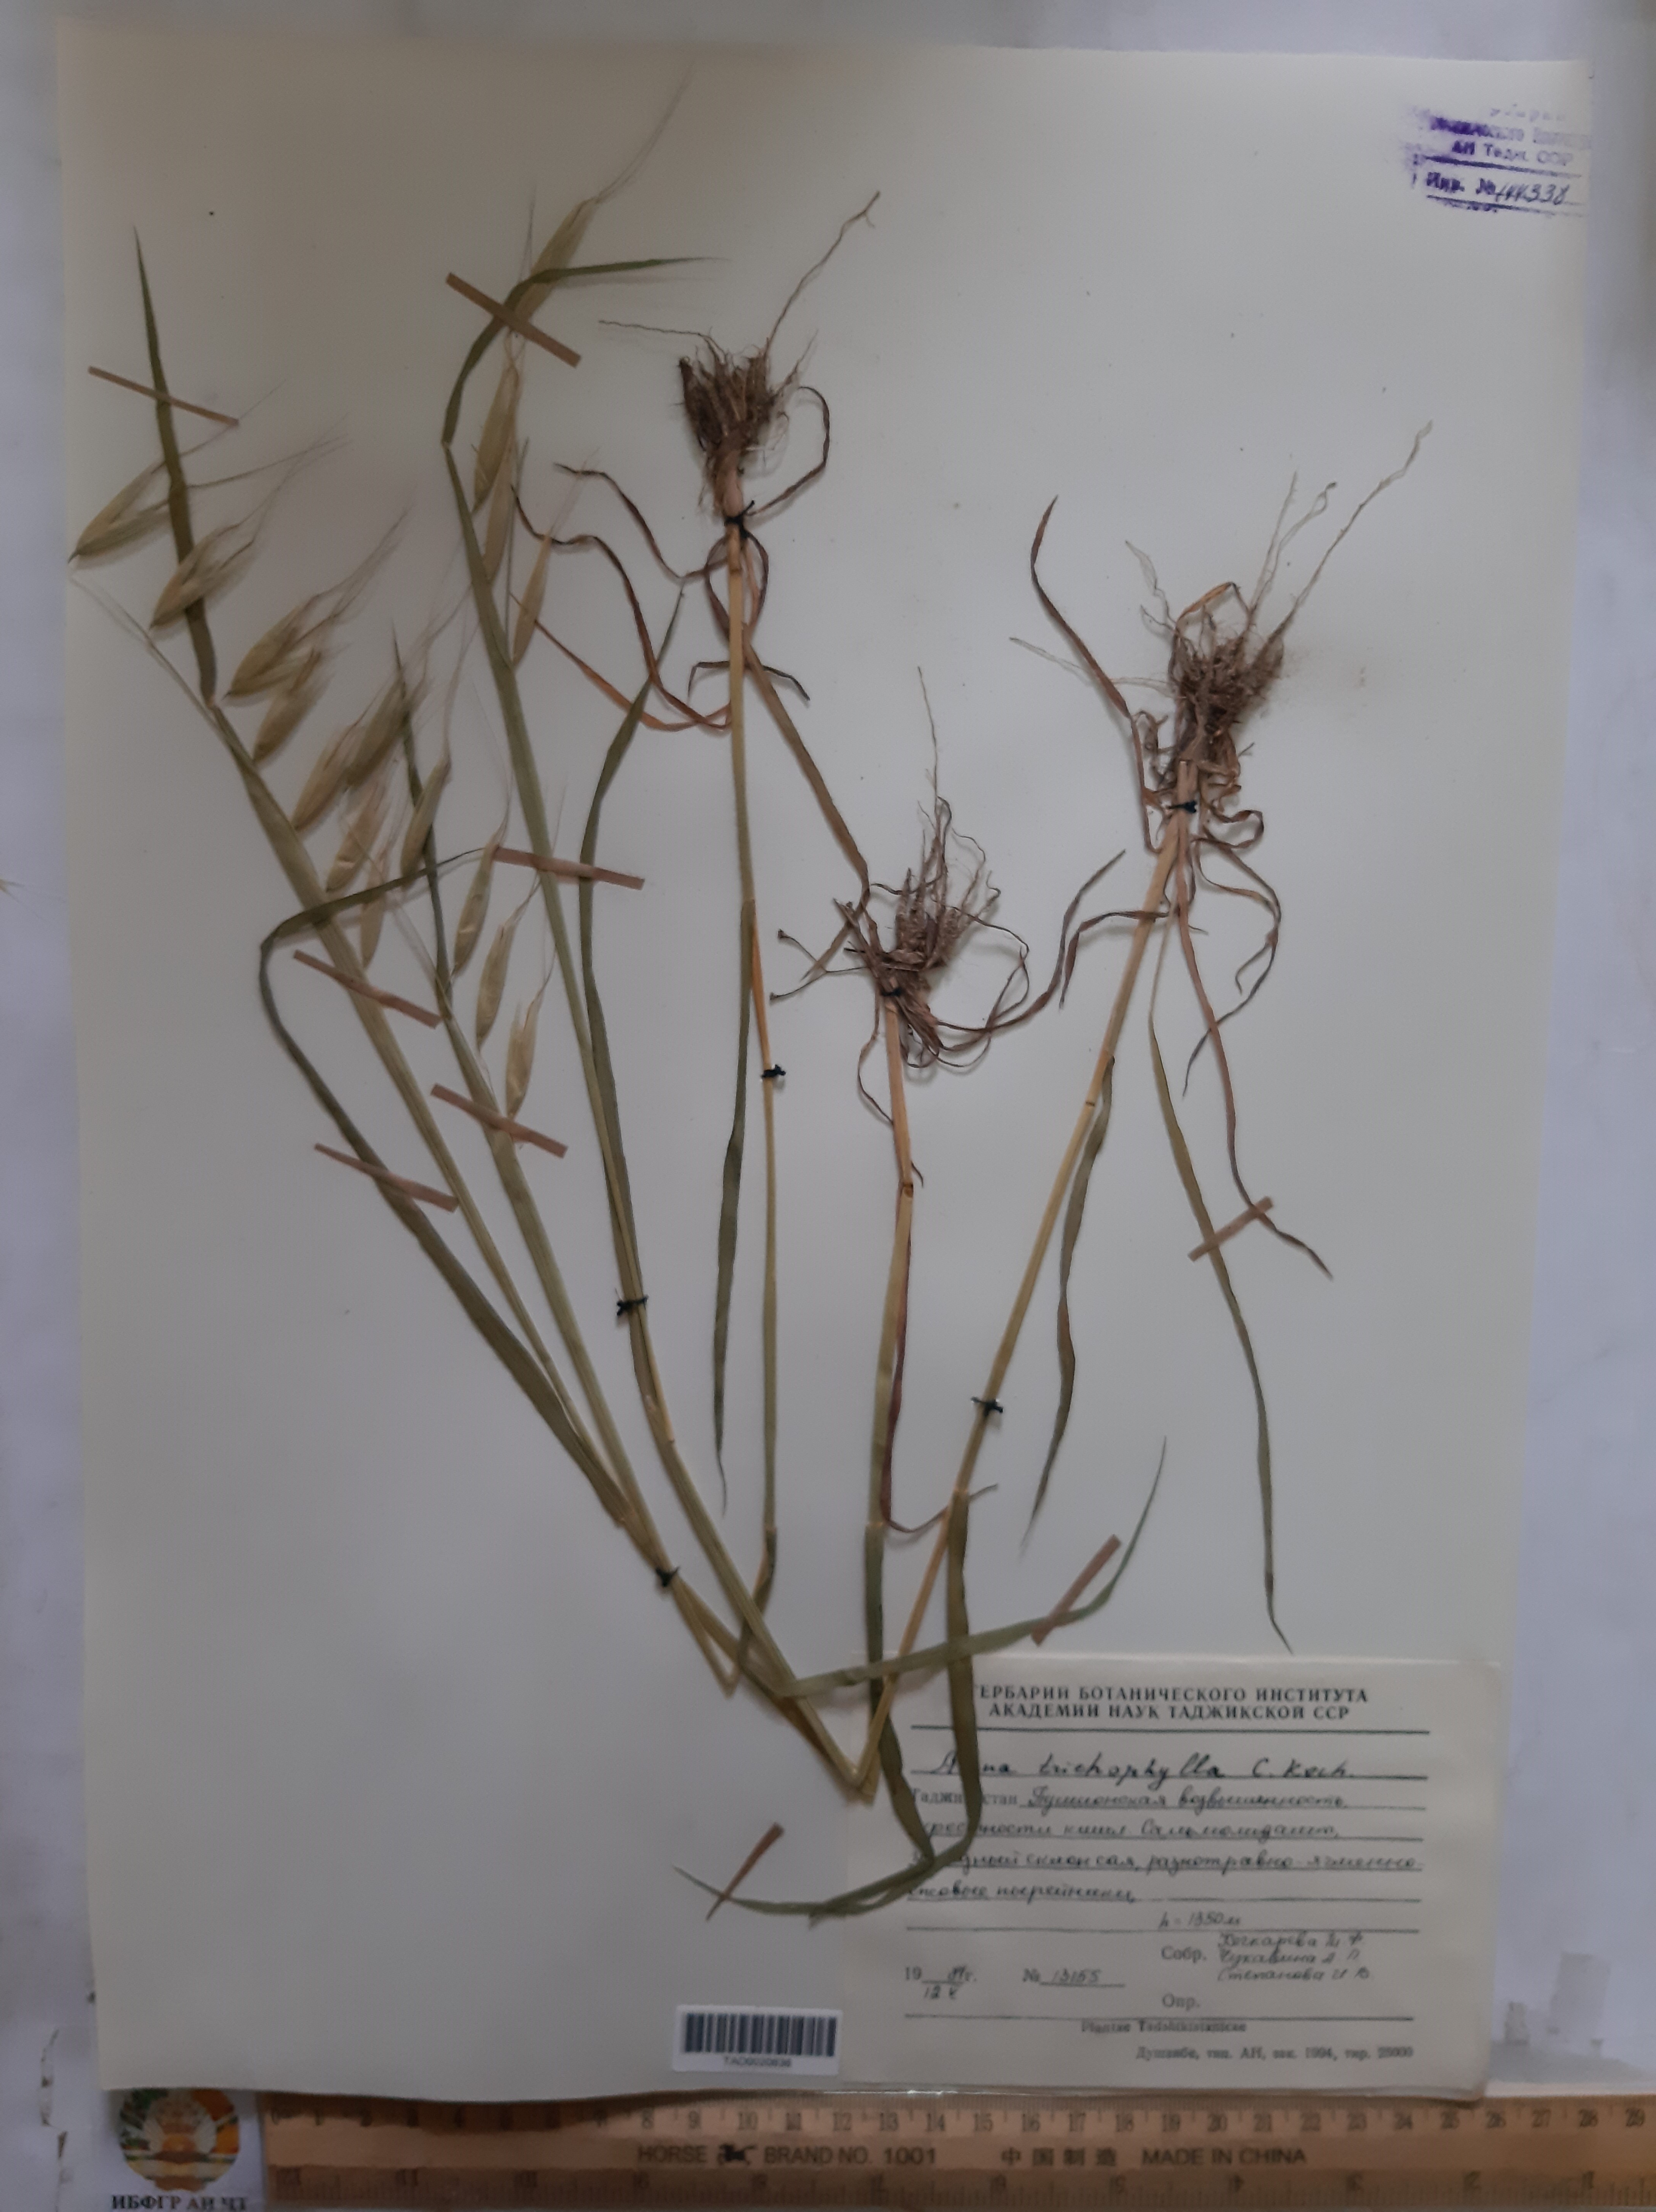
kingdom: Plantae
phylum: Tracheophyta
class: Liliopsida
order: Poales
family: Poaceae
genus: Avena
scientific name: Avena sterilis
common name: Animated oat
